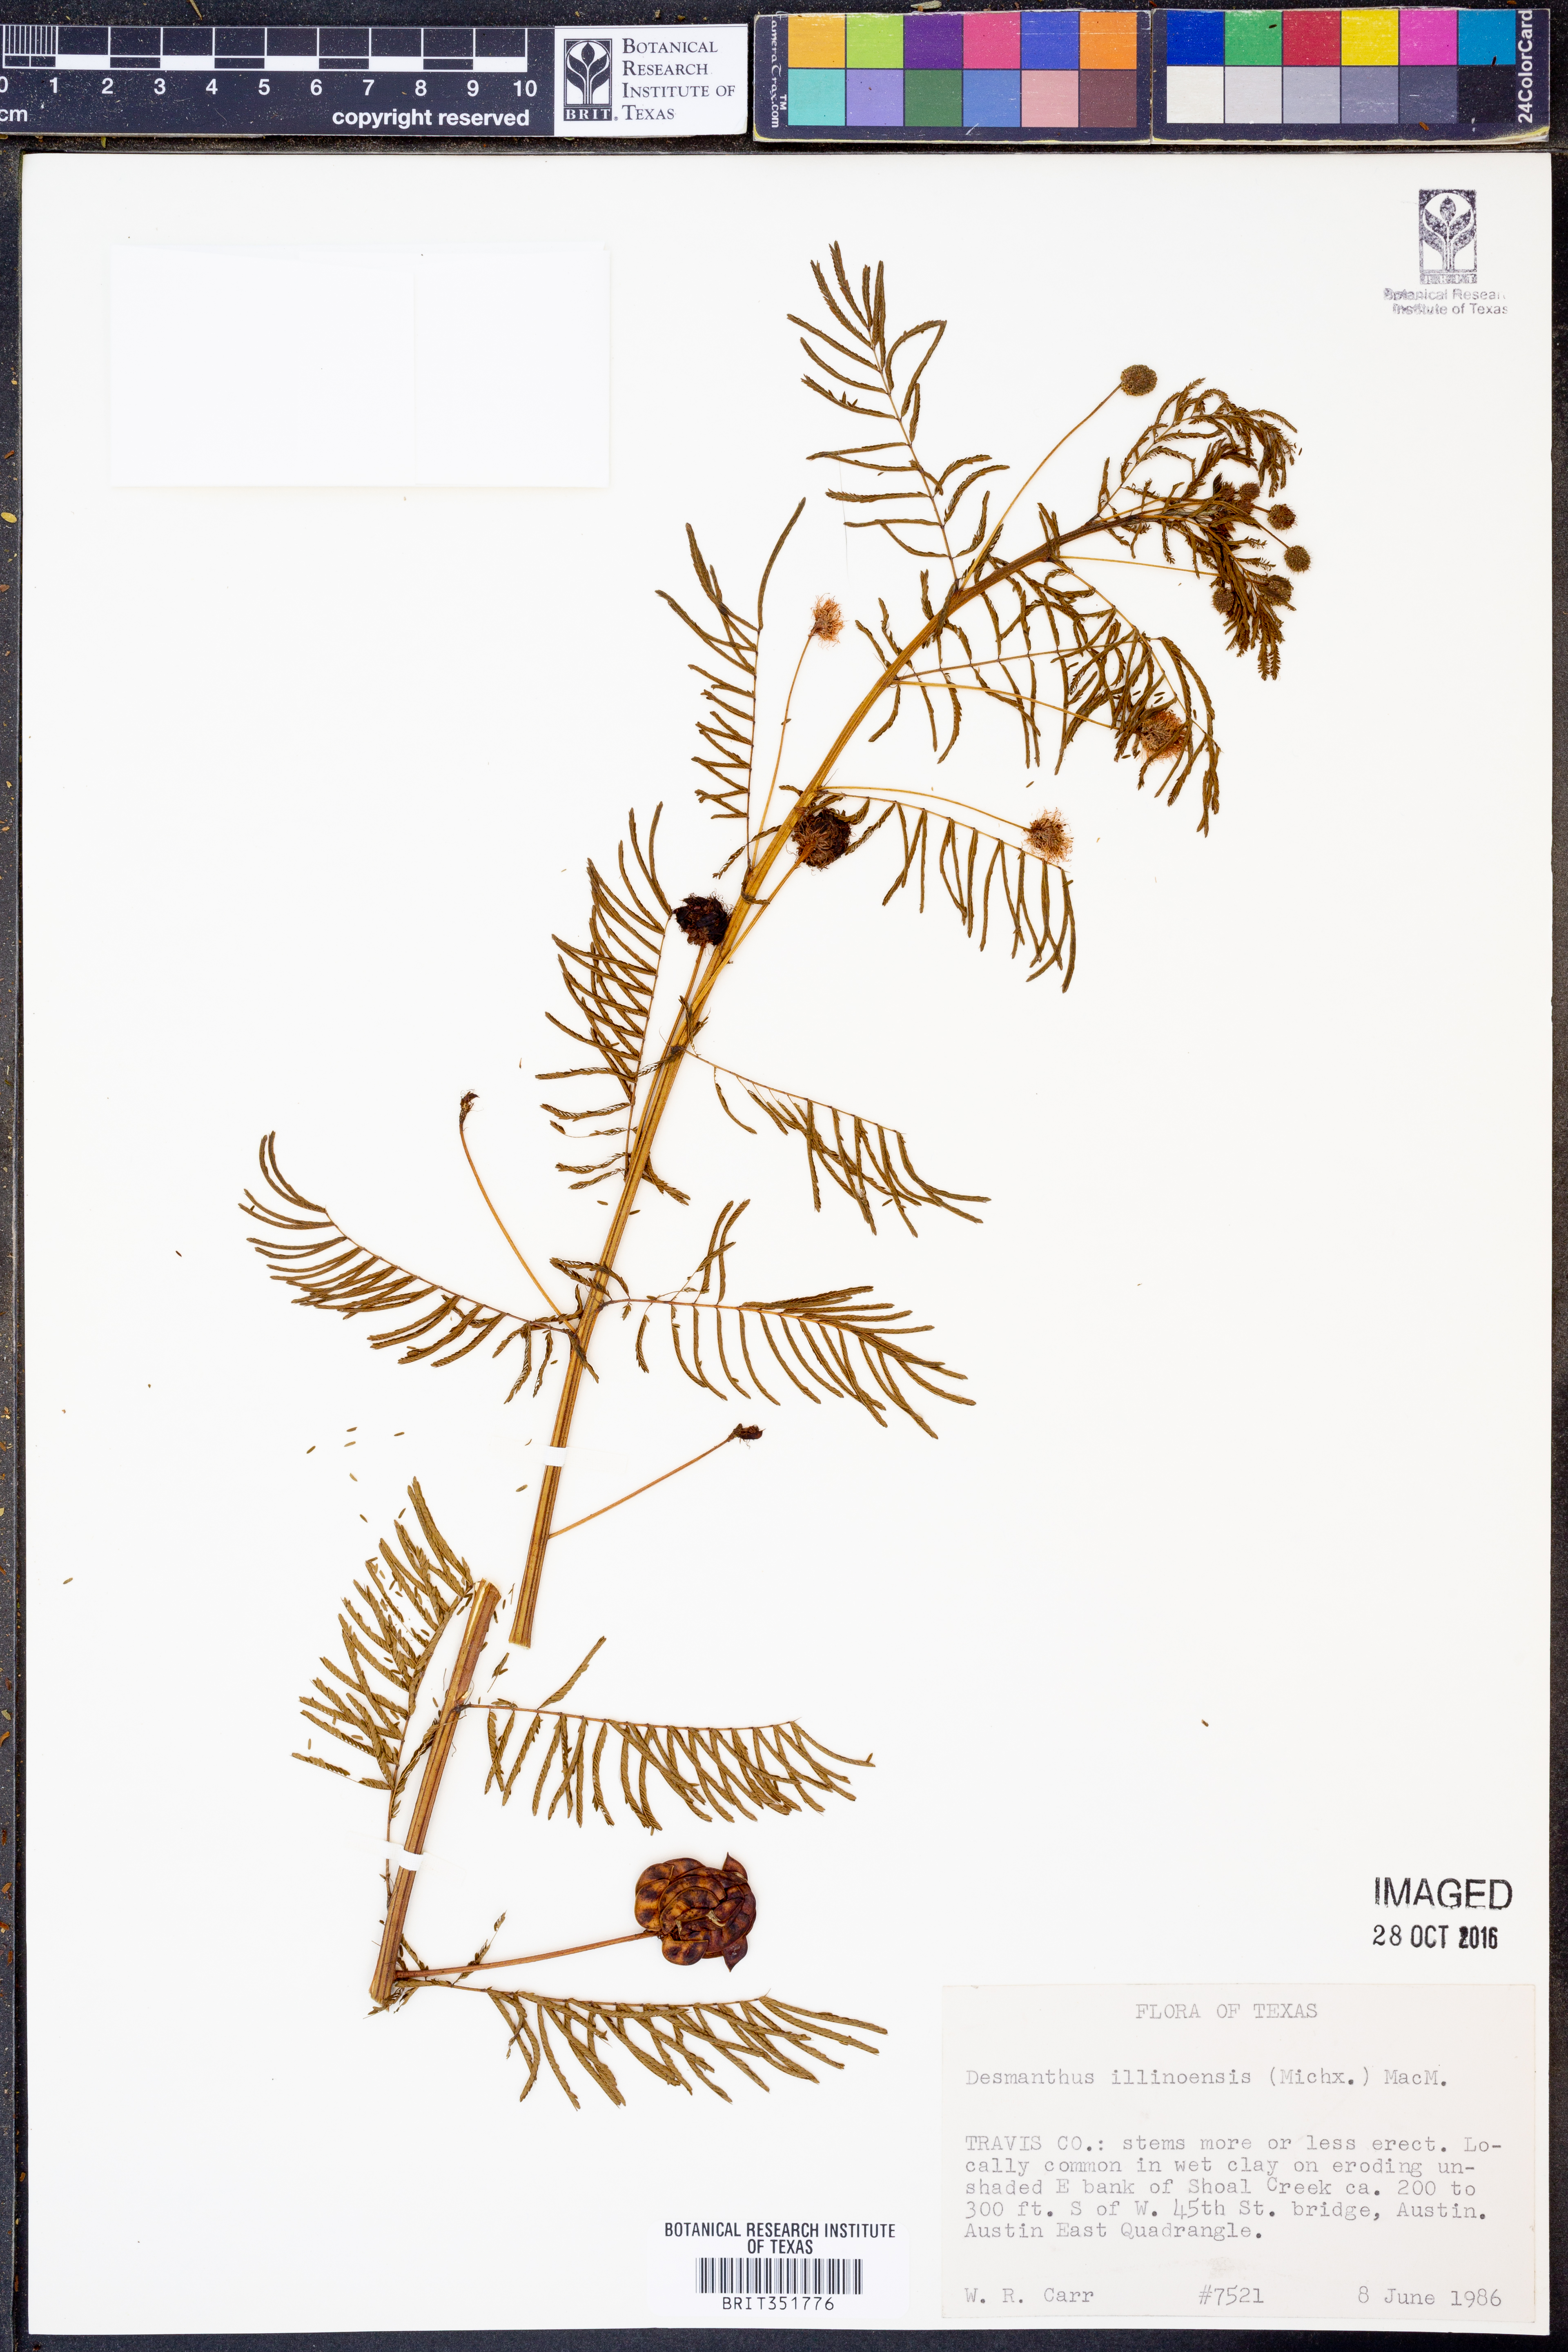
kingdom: Plantae
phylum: Tracheophyta
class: Magnoliopsida
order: Fabales
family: Fabaceae
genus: Desmanthus
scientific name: Desmanthus illinoensis
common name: Illinois bundle-flower
